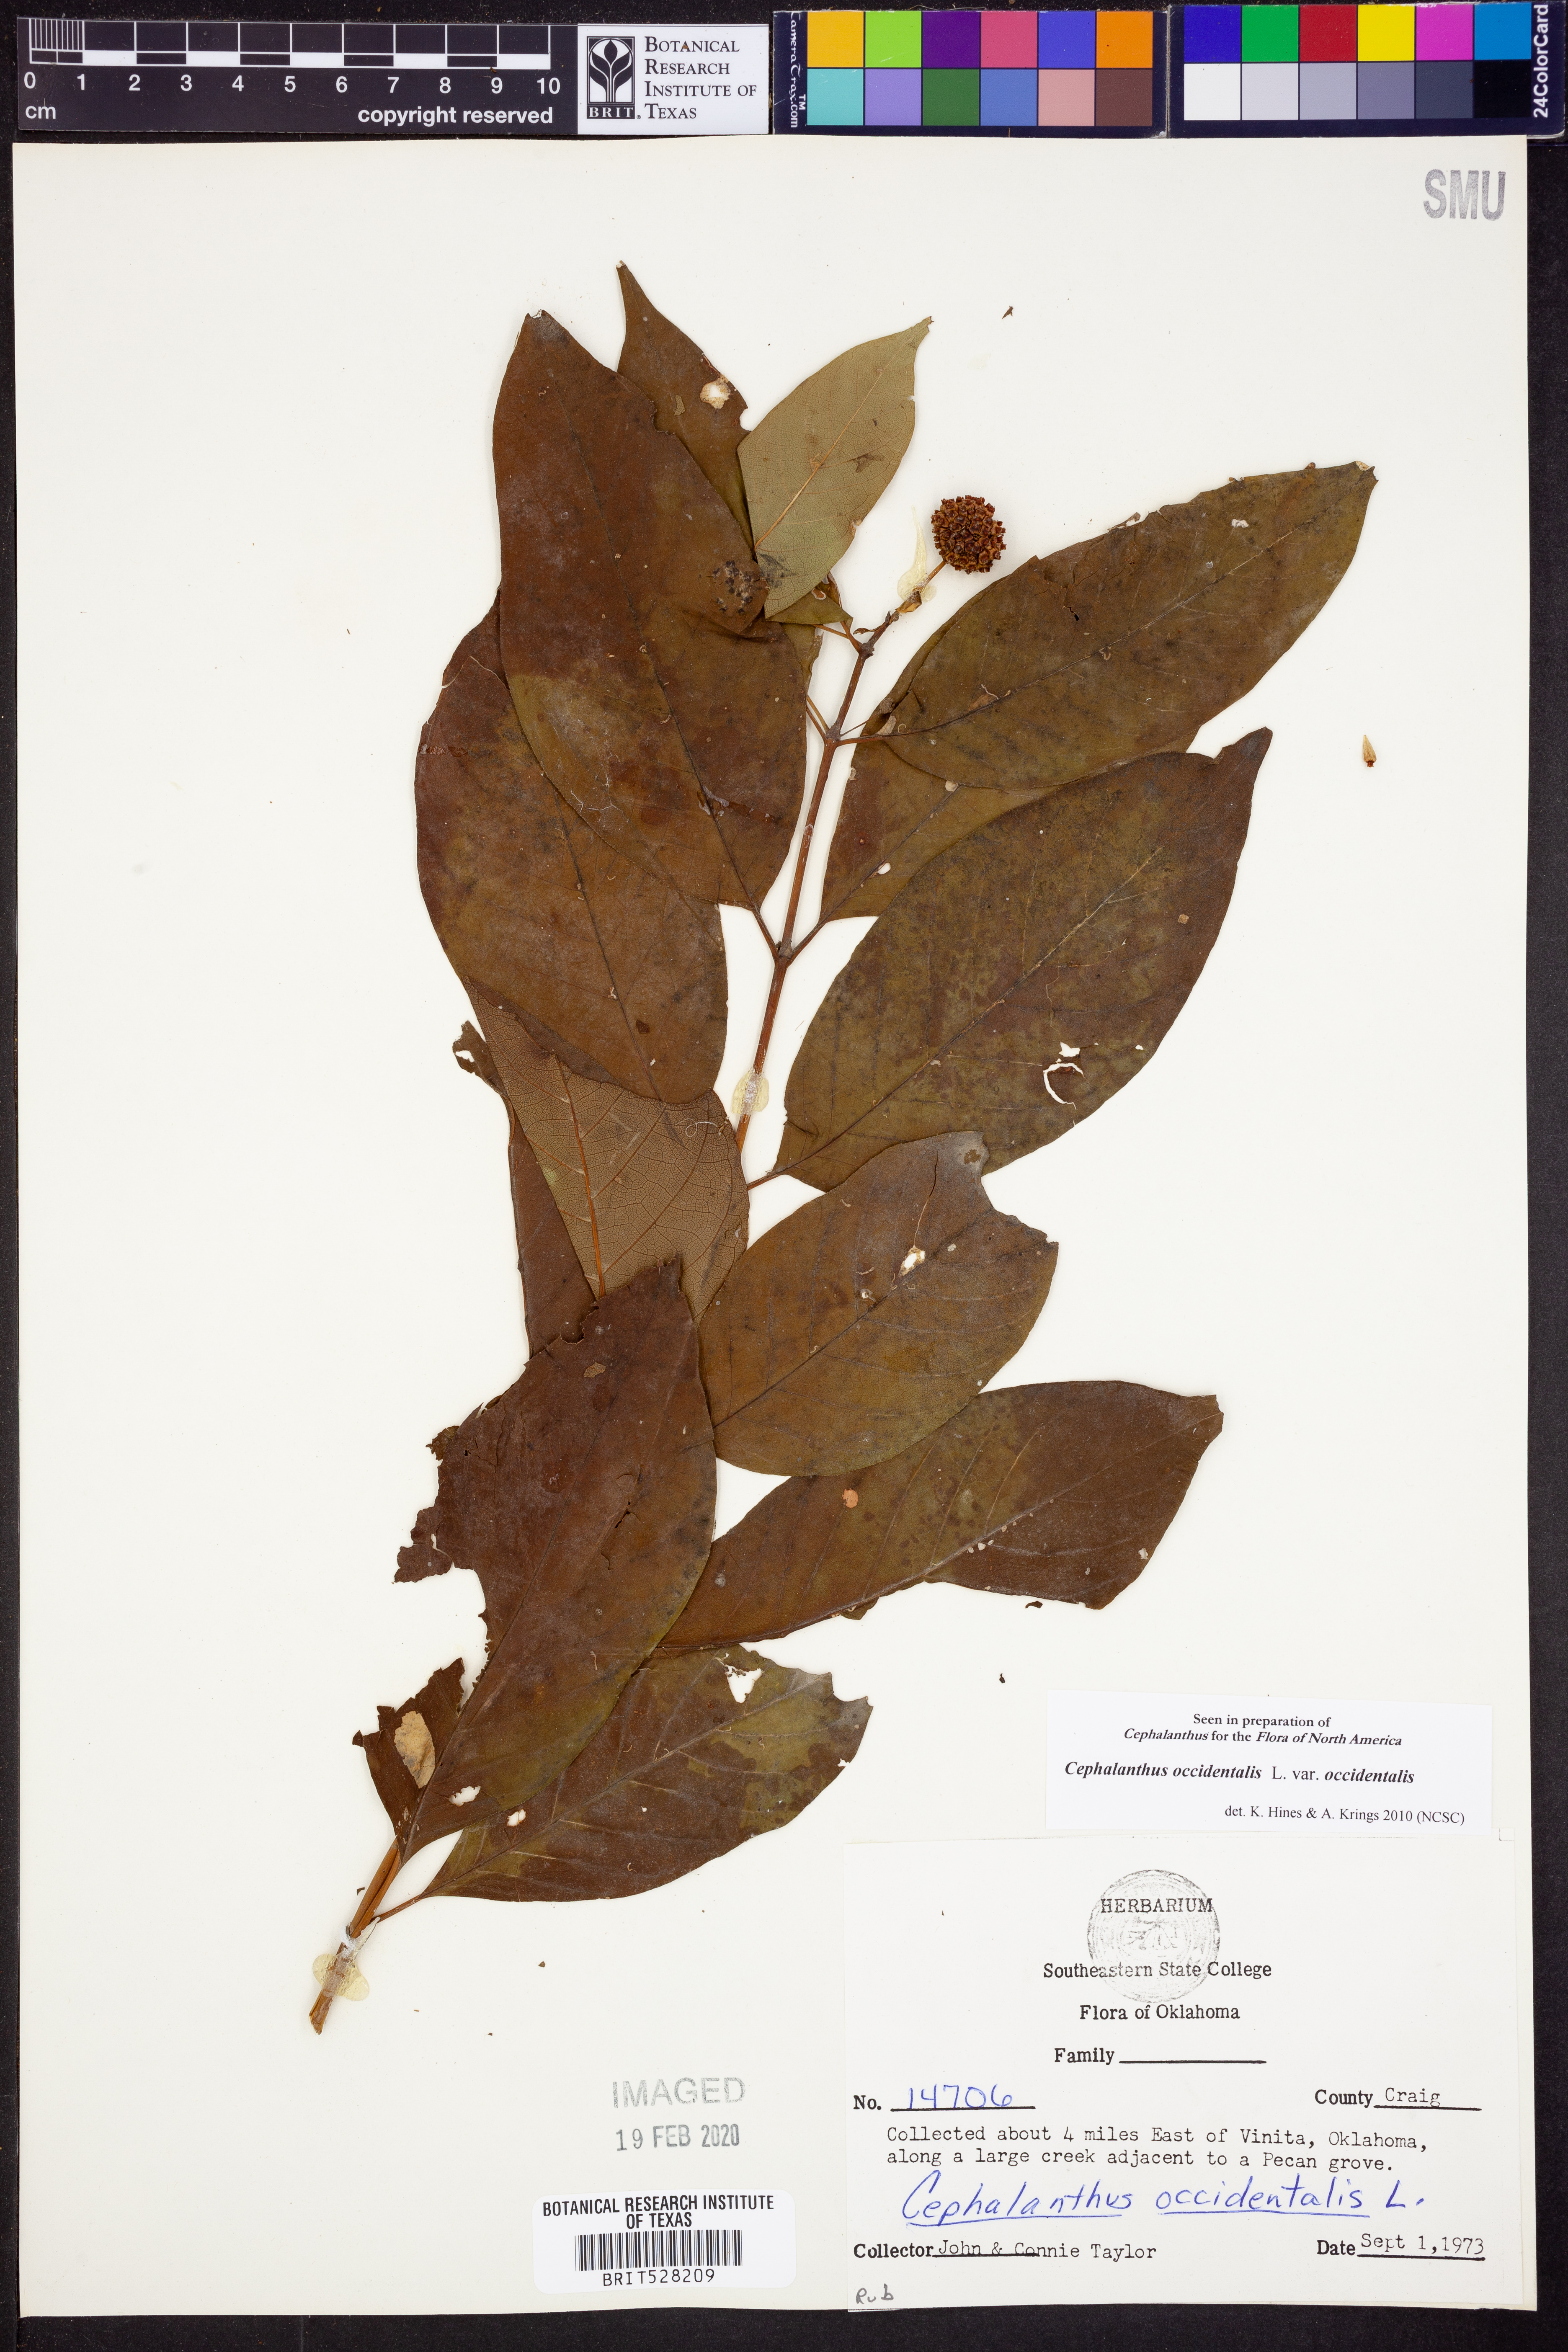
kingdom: Plantae
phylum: Tracheophyta
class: Magnoliopsida
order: Gentianales
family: Rubiaceae
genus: Cephalanthus
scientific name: Cephalanthus occidentalis
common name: Button-willow
